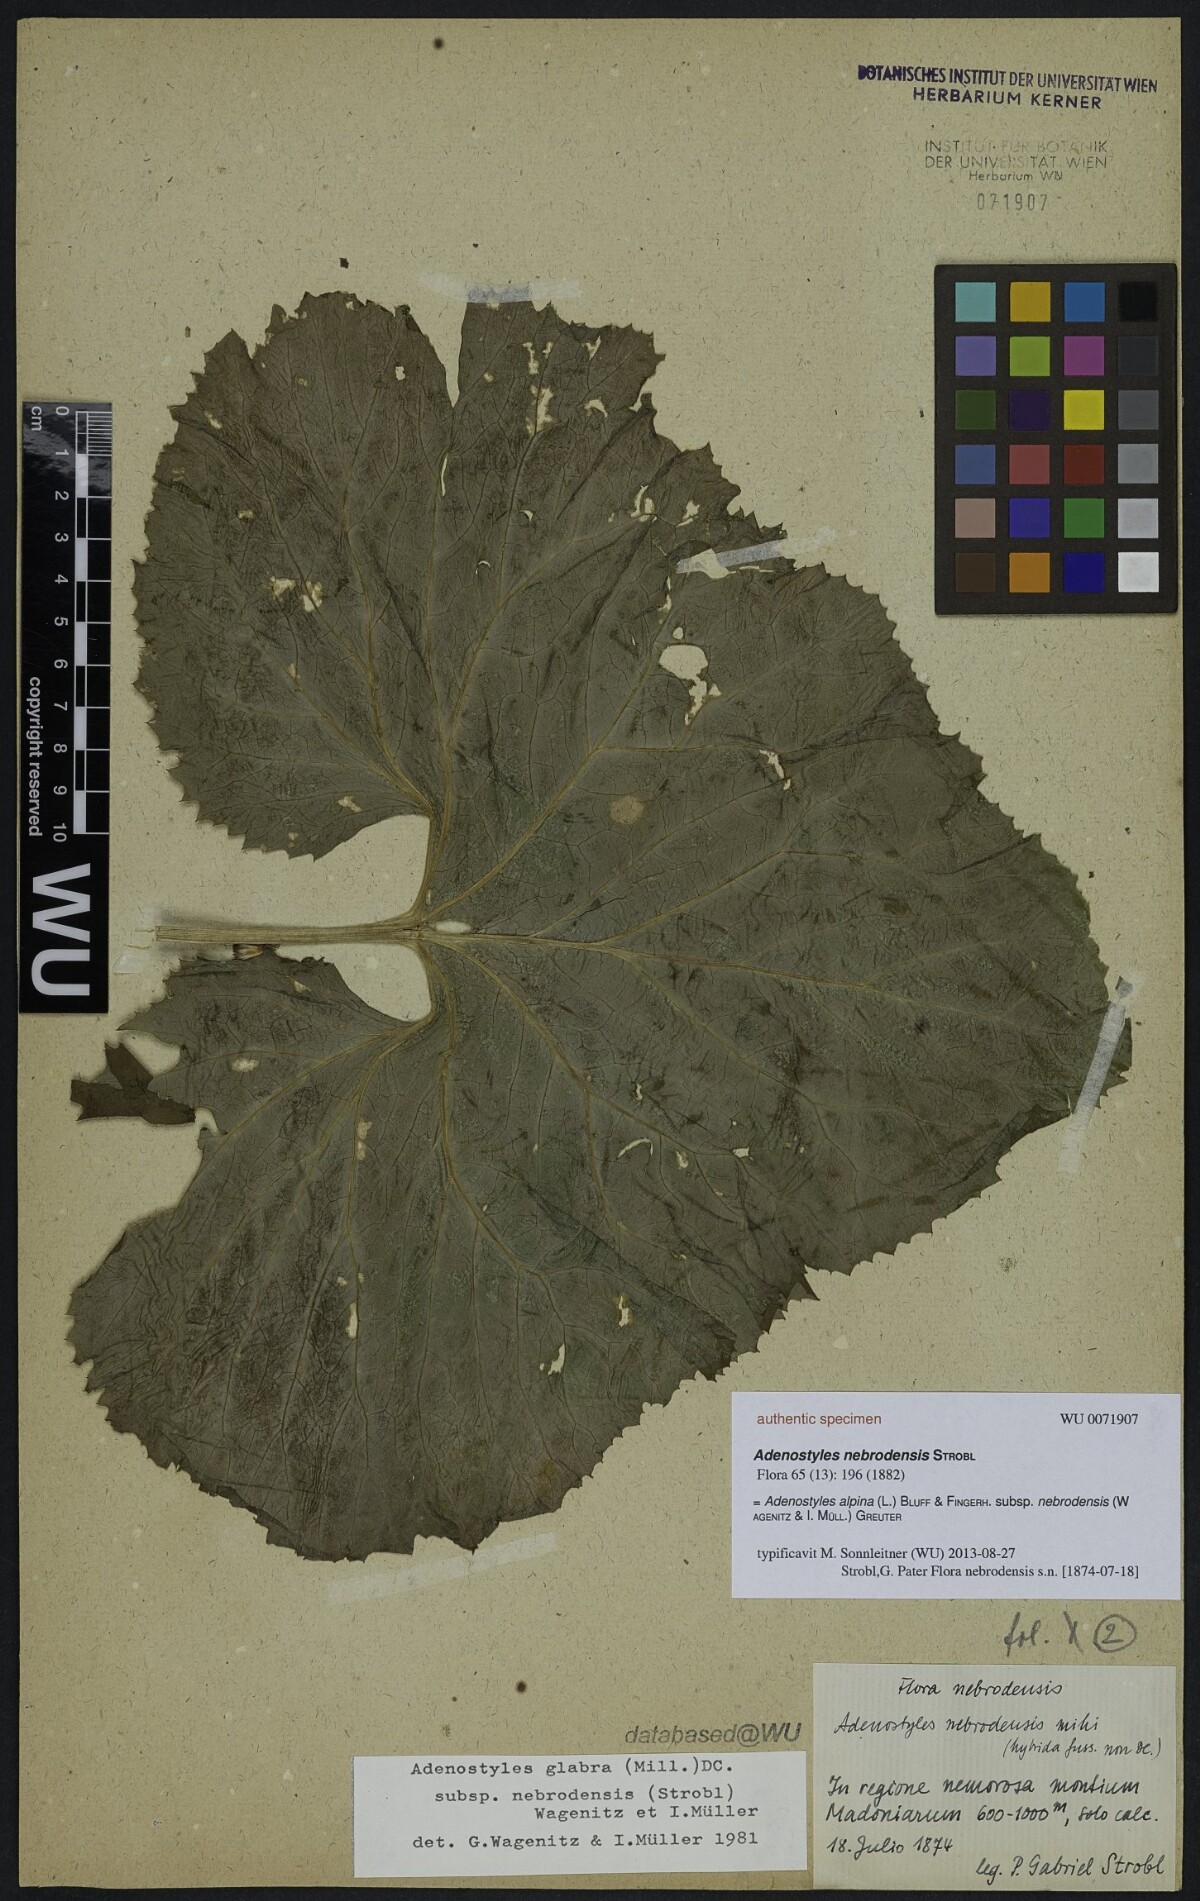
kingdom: Plantae
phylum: Tracheophyta
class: Magnoliopsida
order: Asterales
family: Asteraceae
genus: Adenostyles
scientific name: Adenostyles alpina
